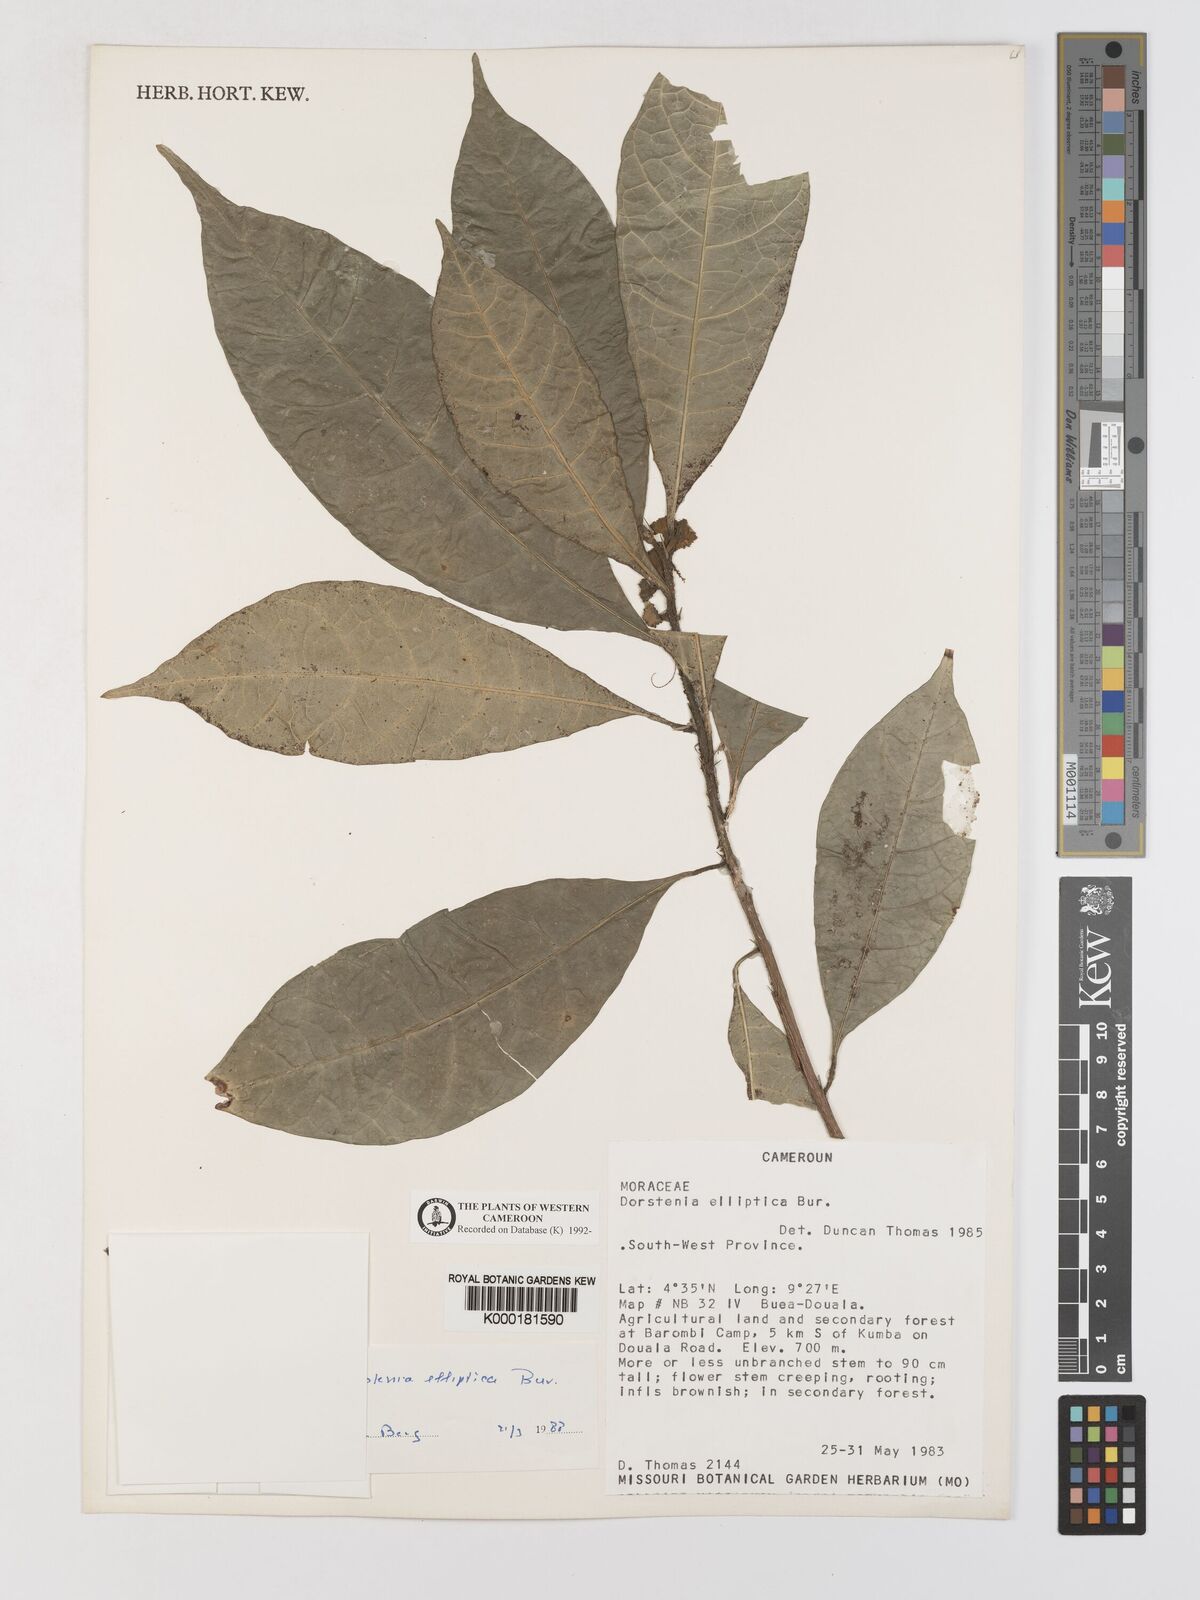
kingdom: Plantae
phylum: Tracheophyta
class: Magnoliopsida
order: Rosales
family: Moraceae
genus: Dorstenia
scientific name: Dorstenia elliptica
